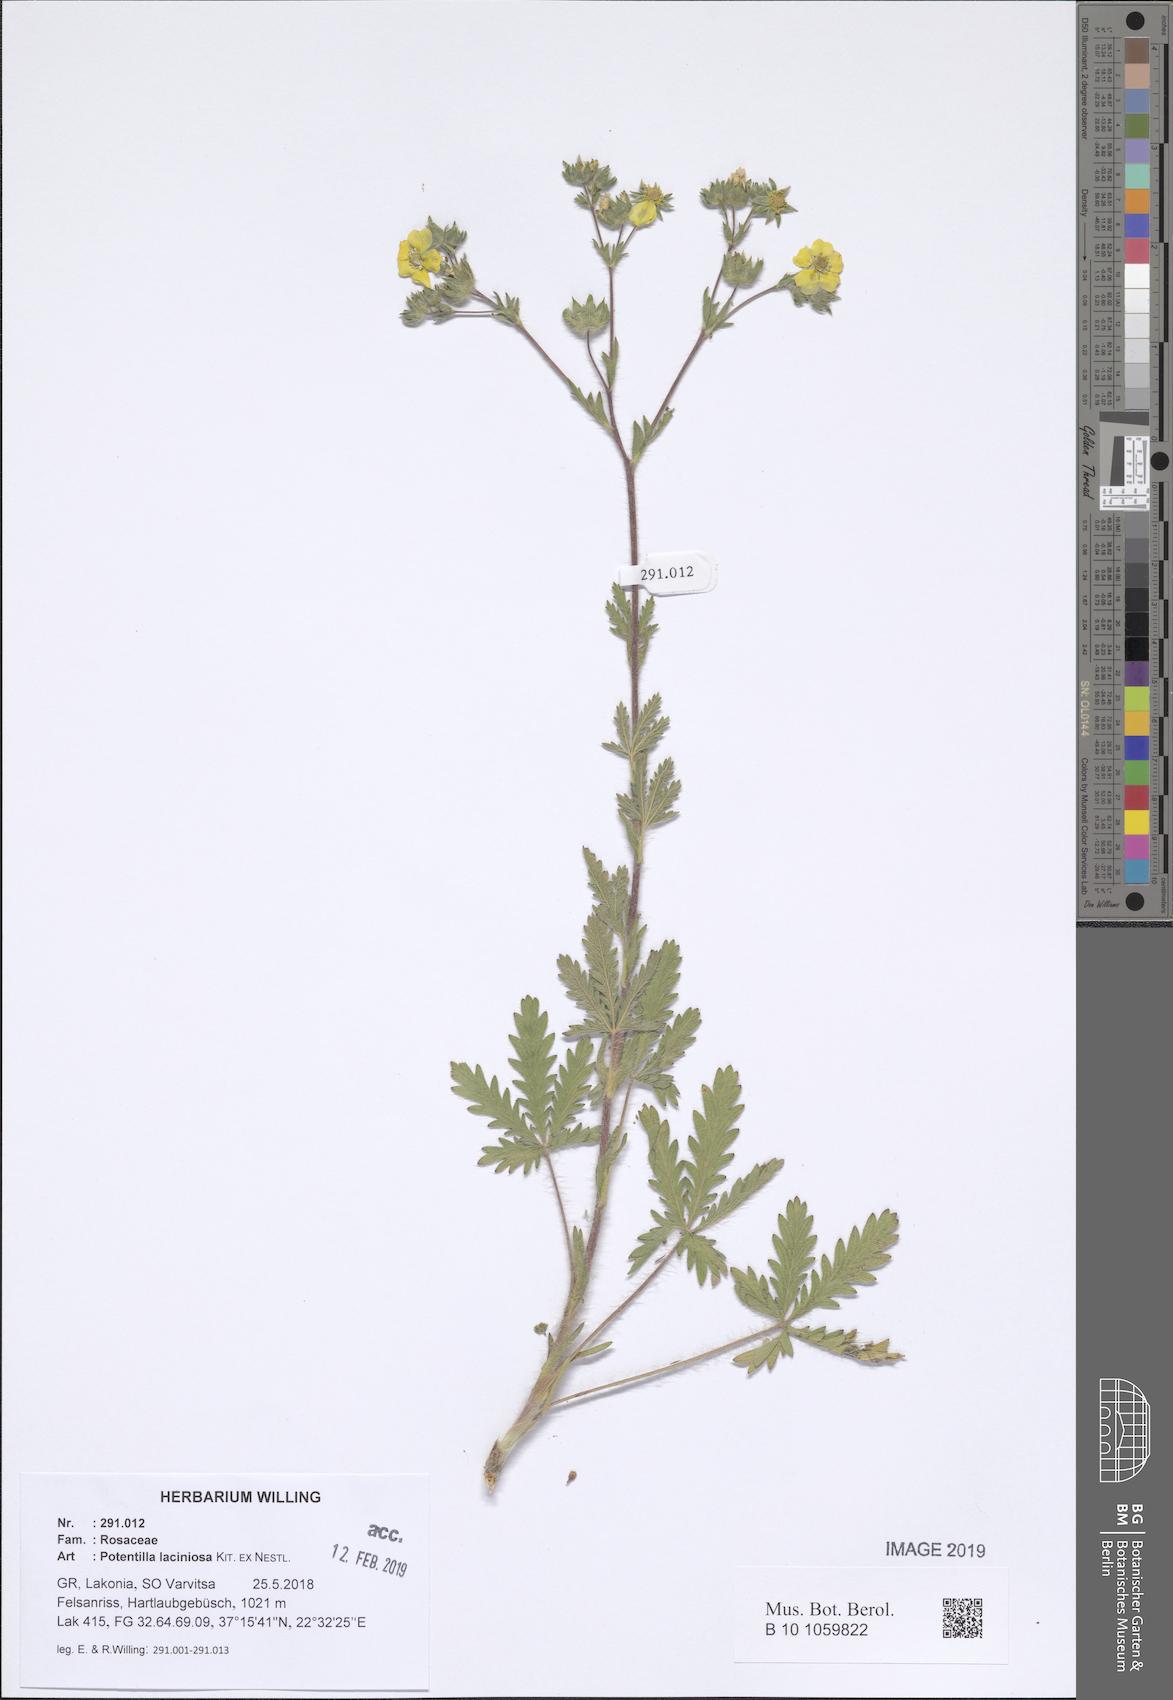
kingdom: Plantae
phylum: Tracheophyta
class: Magnoliopsida
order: Rosales
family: Rosaceae
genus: Potentilla
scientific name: Potentilla recta
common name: Sulphur cinquefoil
